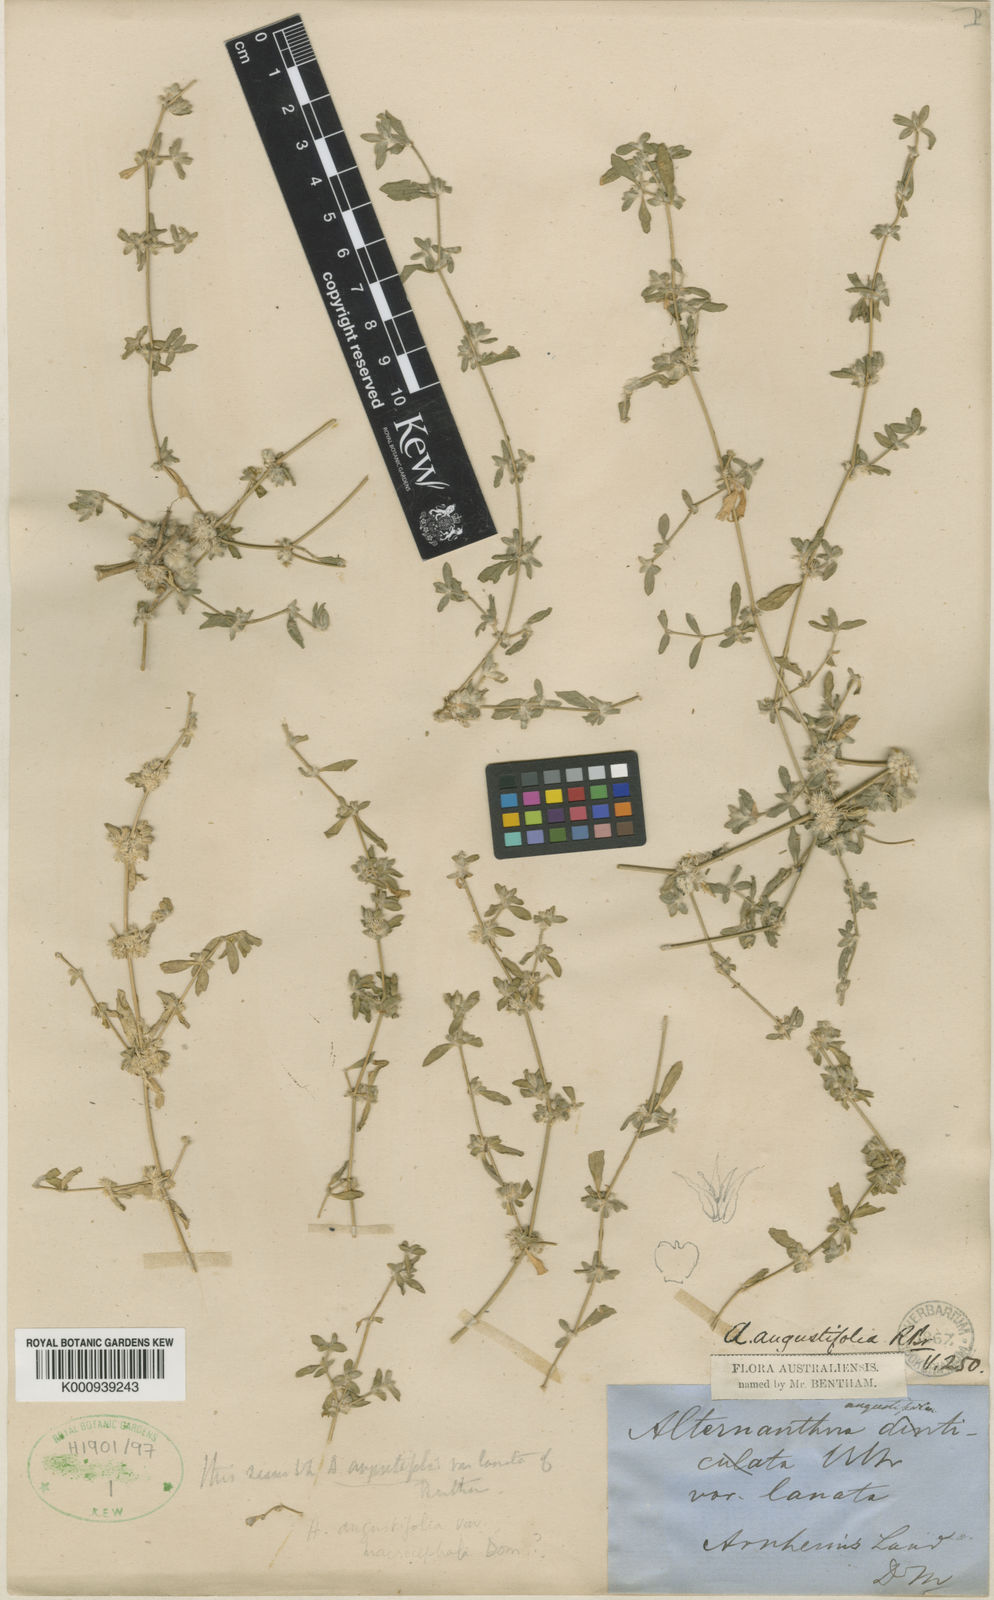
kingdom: Plantae
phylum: Tracheophyta
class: Magnoliopsida
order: Caryophyllales
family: Amaranthaceae
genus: Alternanthera
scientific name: Alternanthera sessilis
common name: Sessile joyweed
